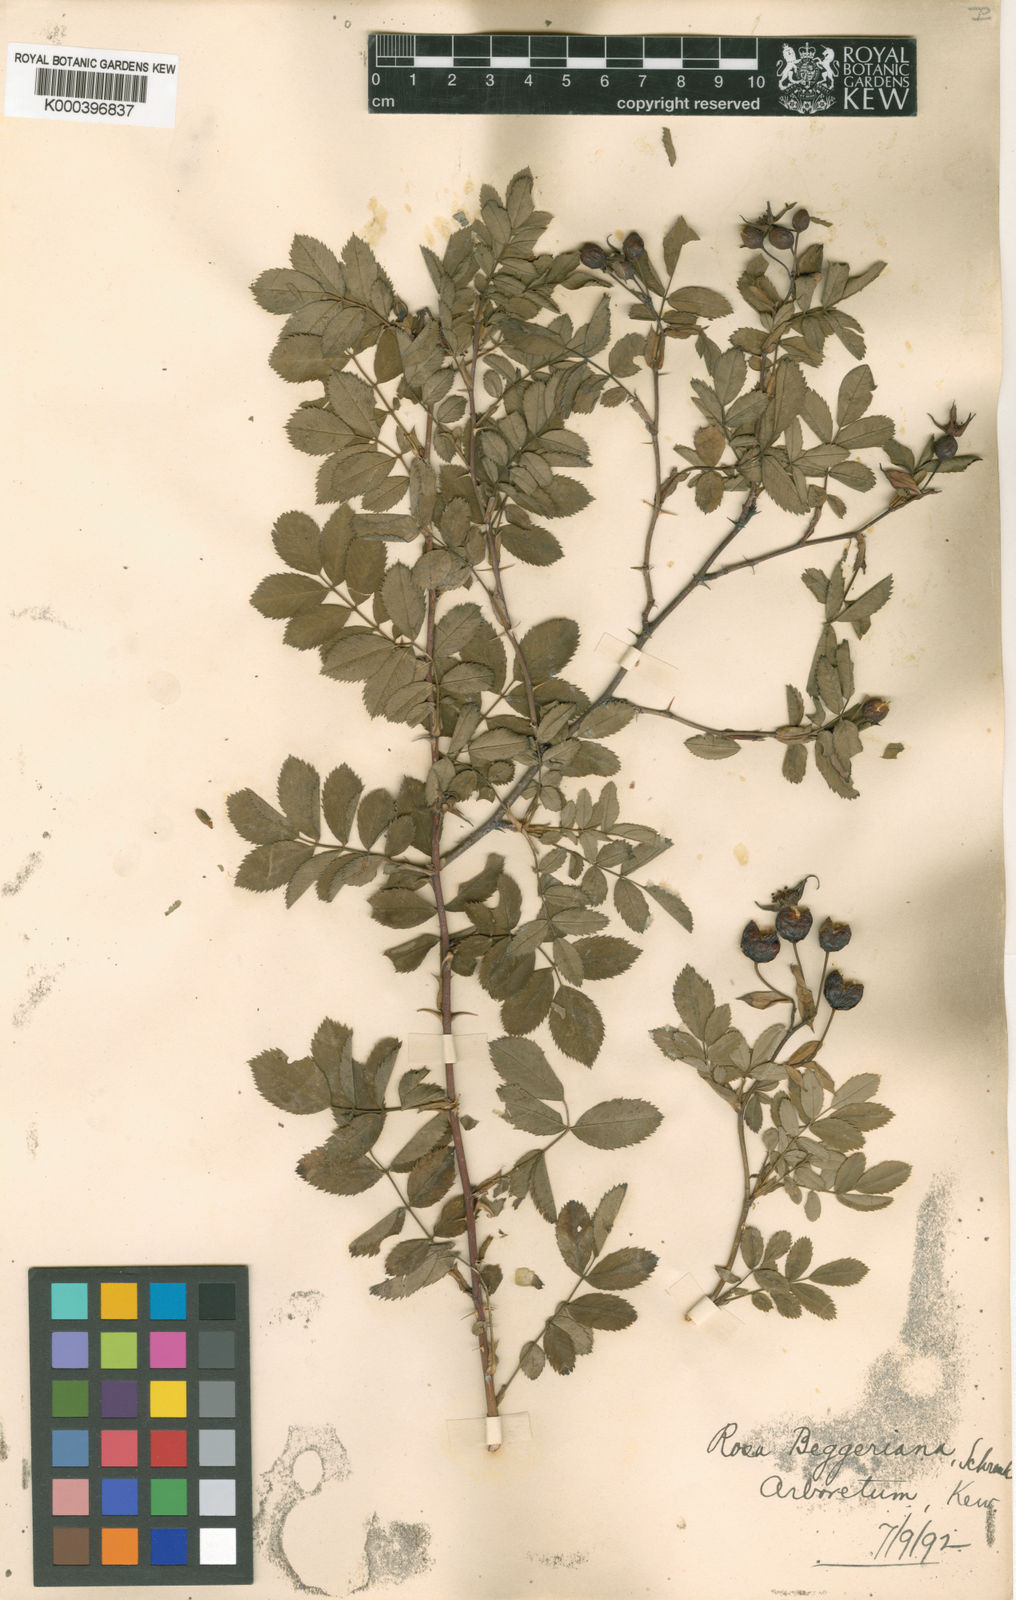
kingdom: Plantae
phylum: Tracheophyta
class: Magnoliopsida
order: Rosales
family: Rosaceae
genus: Rosa
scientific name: Rosa beggeriana
